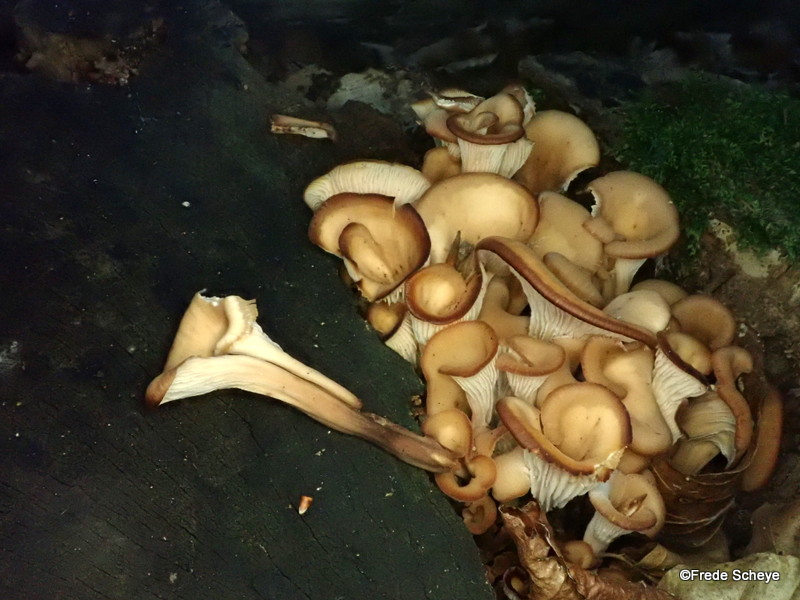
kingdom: Fungi
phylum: Basidiomycota
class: Agaricomycetes
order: Russulales
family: Auriscalpiaceae
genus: Lentinellus
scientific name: Lentinellus cochleatus
